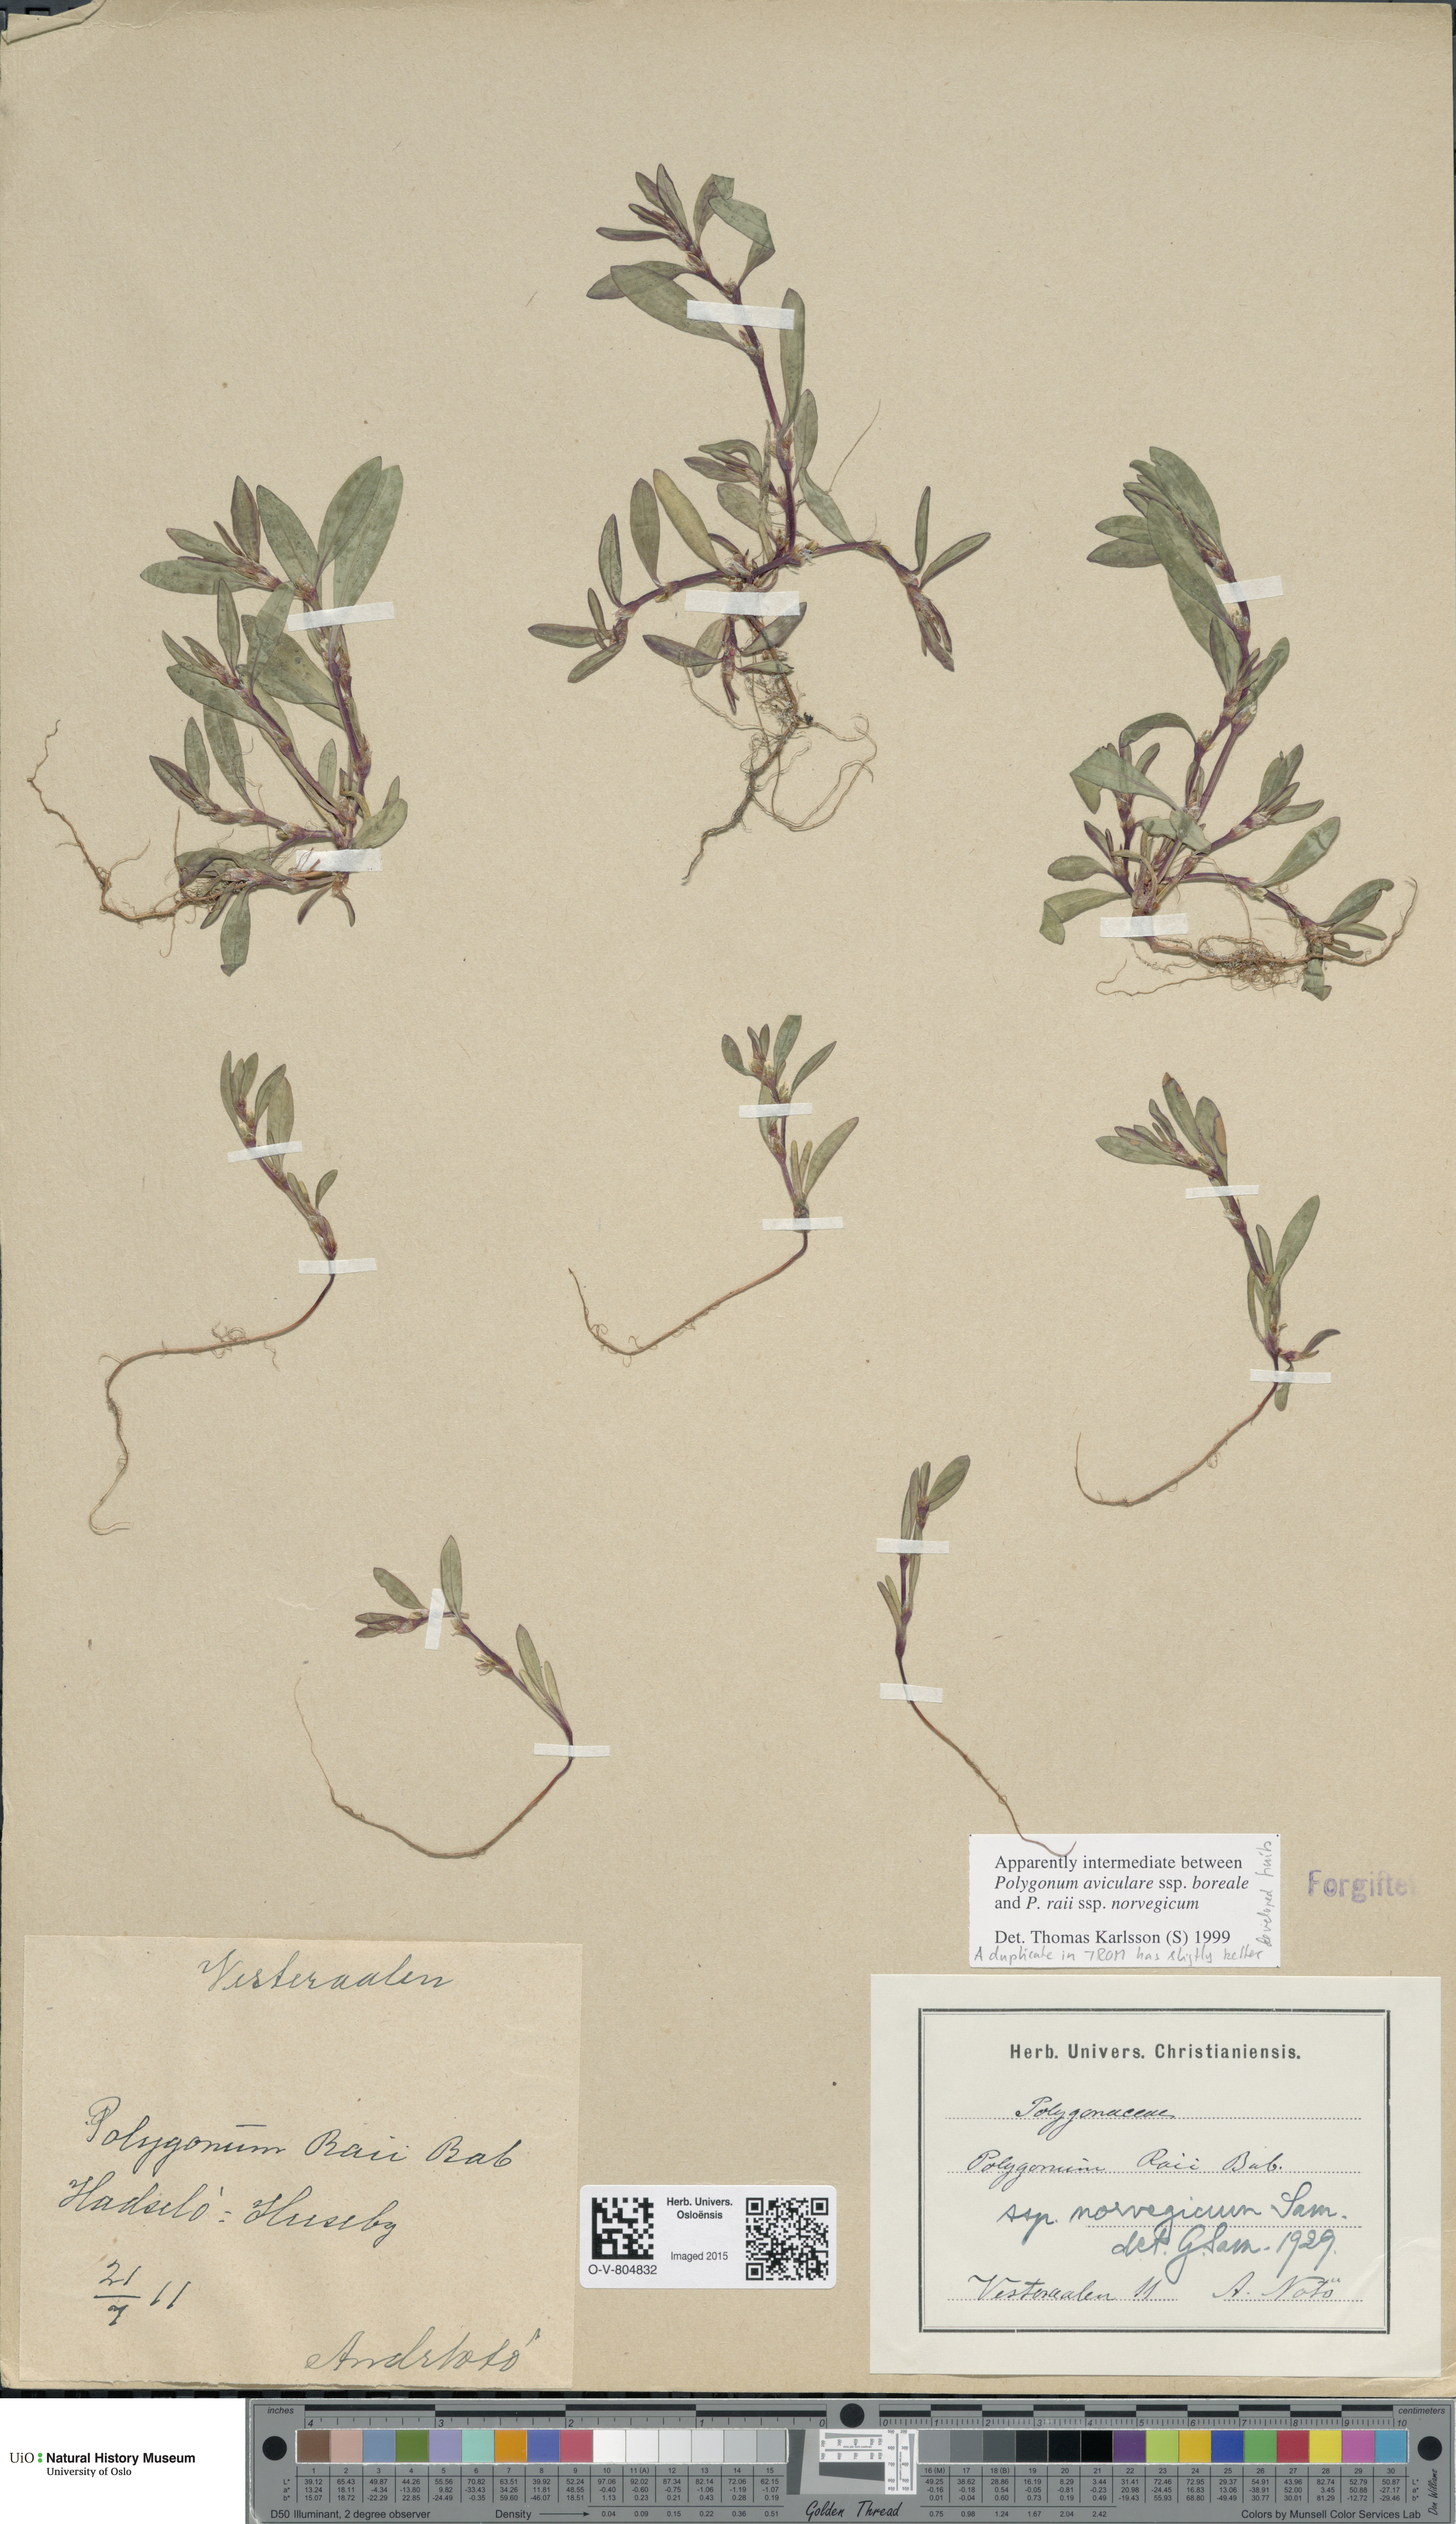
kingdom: Plantae
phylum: Tracheophyta
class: Magnoliopsida
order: Caryophyllales
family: Polygonaceae
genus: Polygonum
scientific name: Polygonum
